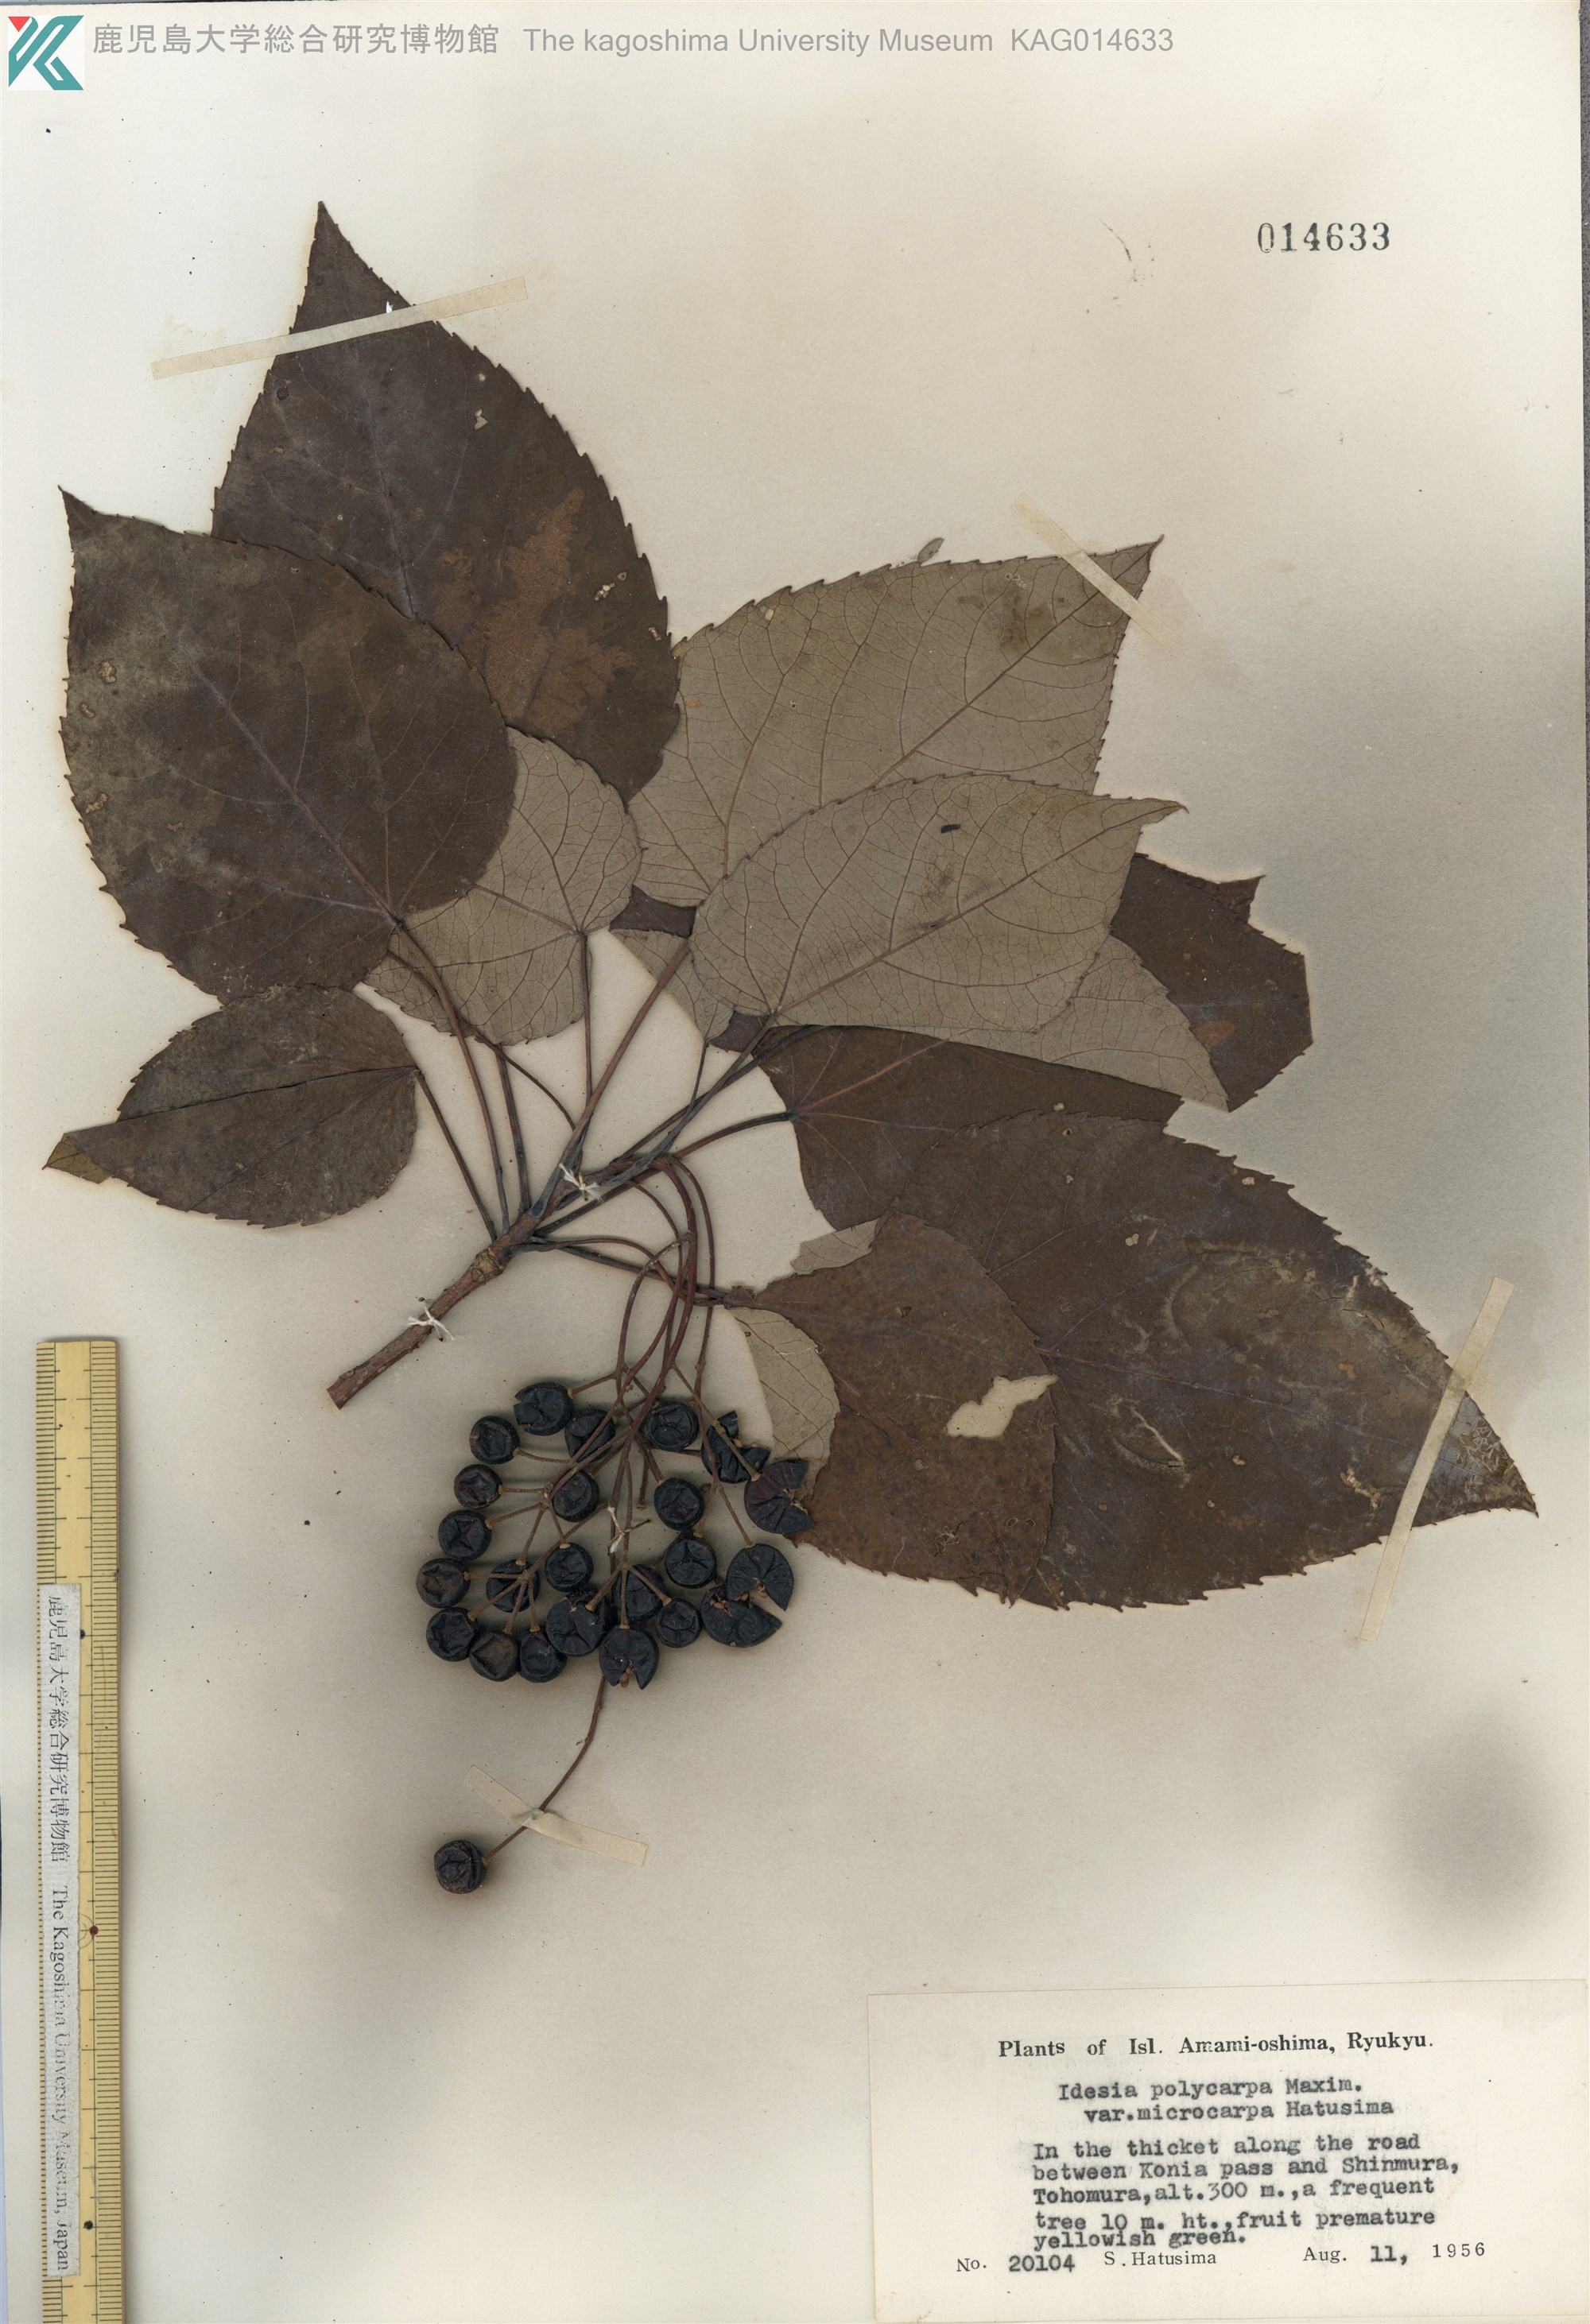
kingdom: Plantae
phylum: Tracheophyta
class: Magnoliopsida
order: Malpighiales
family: Salicaceae
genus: Idesia
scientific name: Idesia polycarpa
